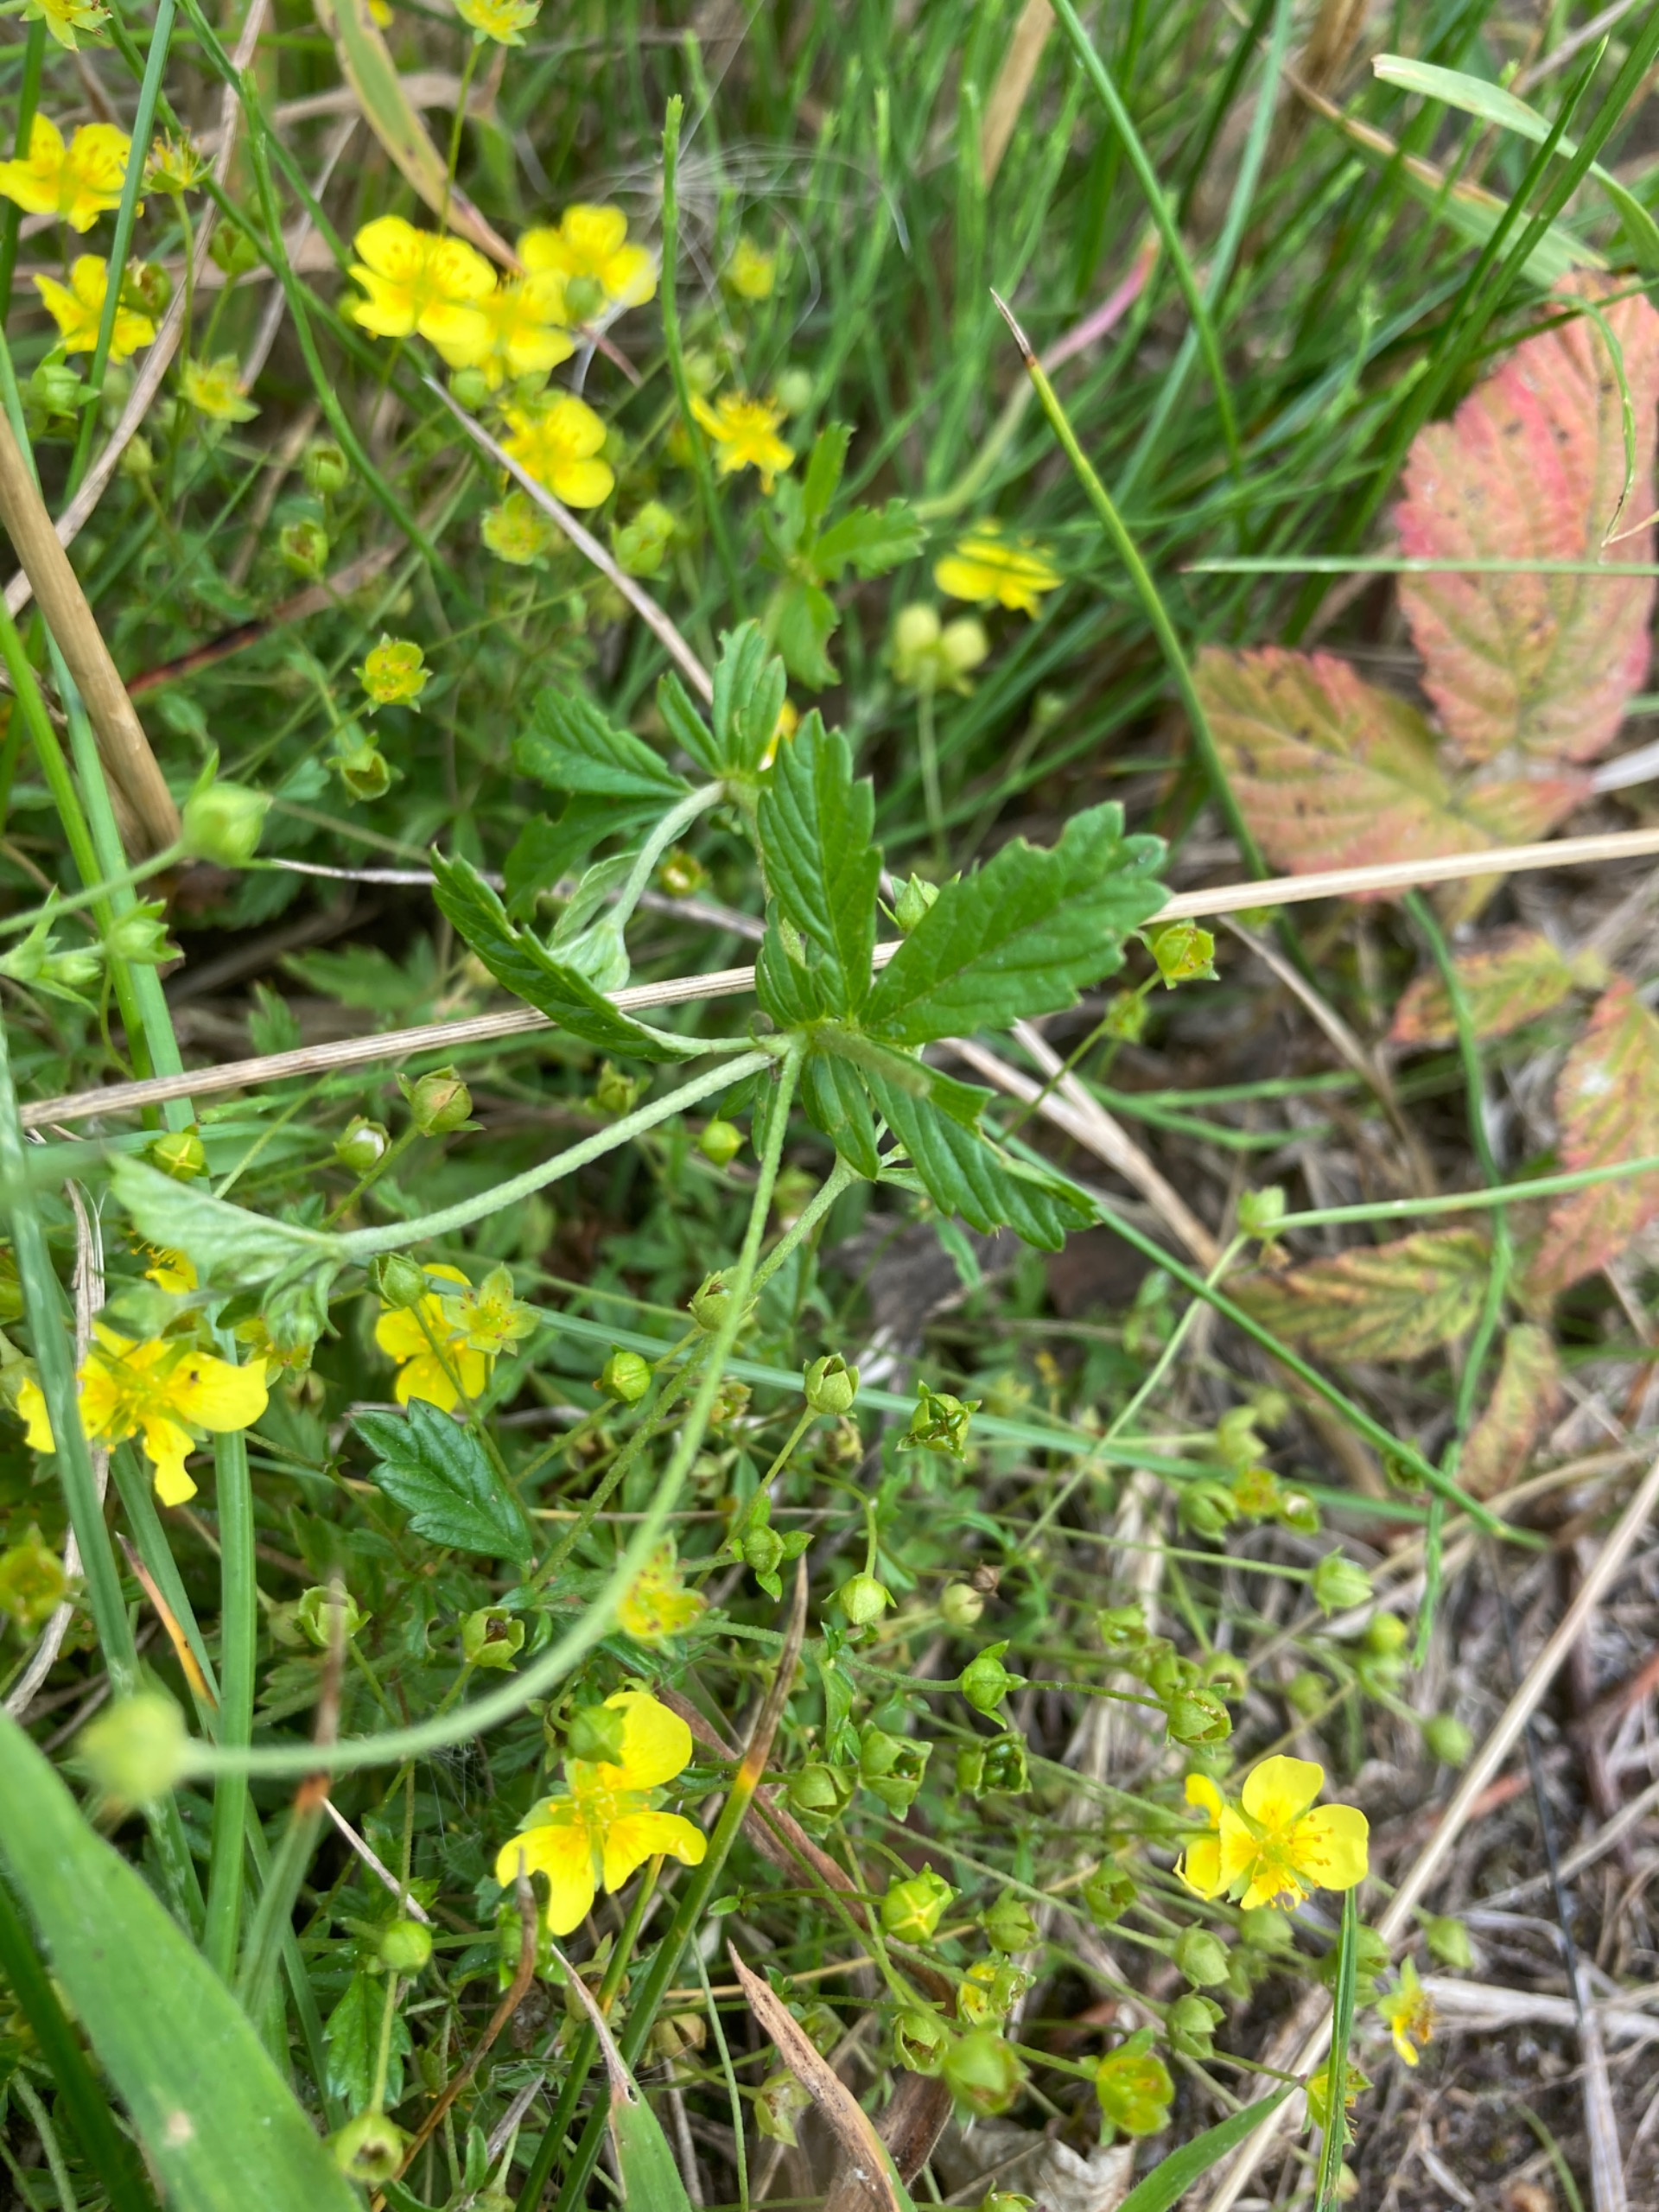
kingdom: Plantae
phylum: Tracheophyta
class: Magnoliopsida
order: Rosales
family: Rosaceae
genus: Potentilla
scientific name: Potentilla erecta
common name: Tormentil
